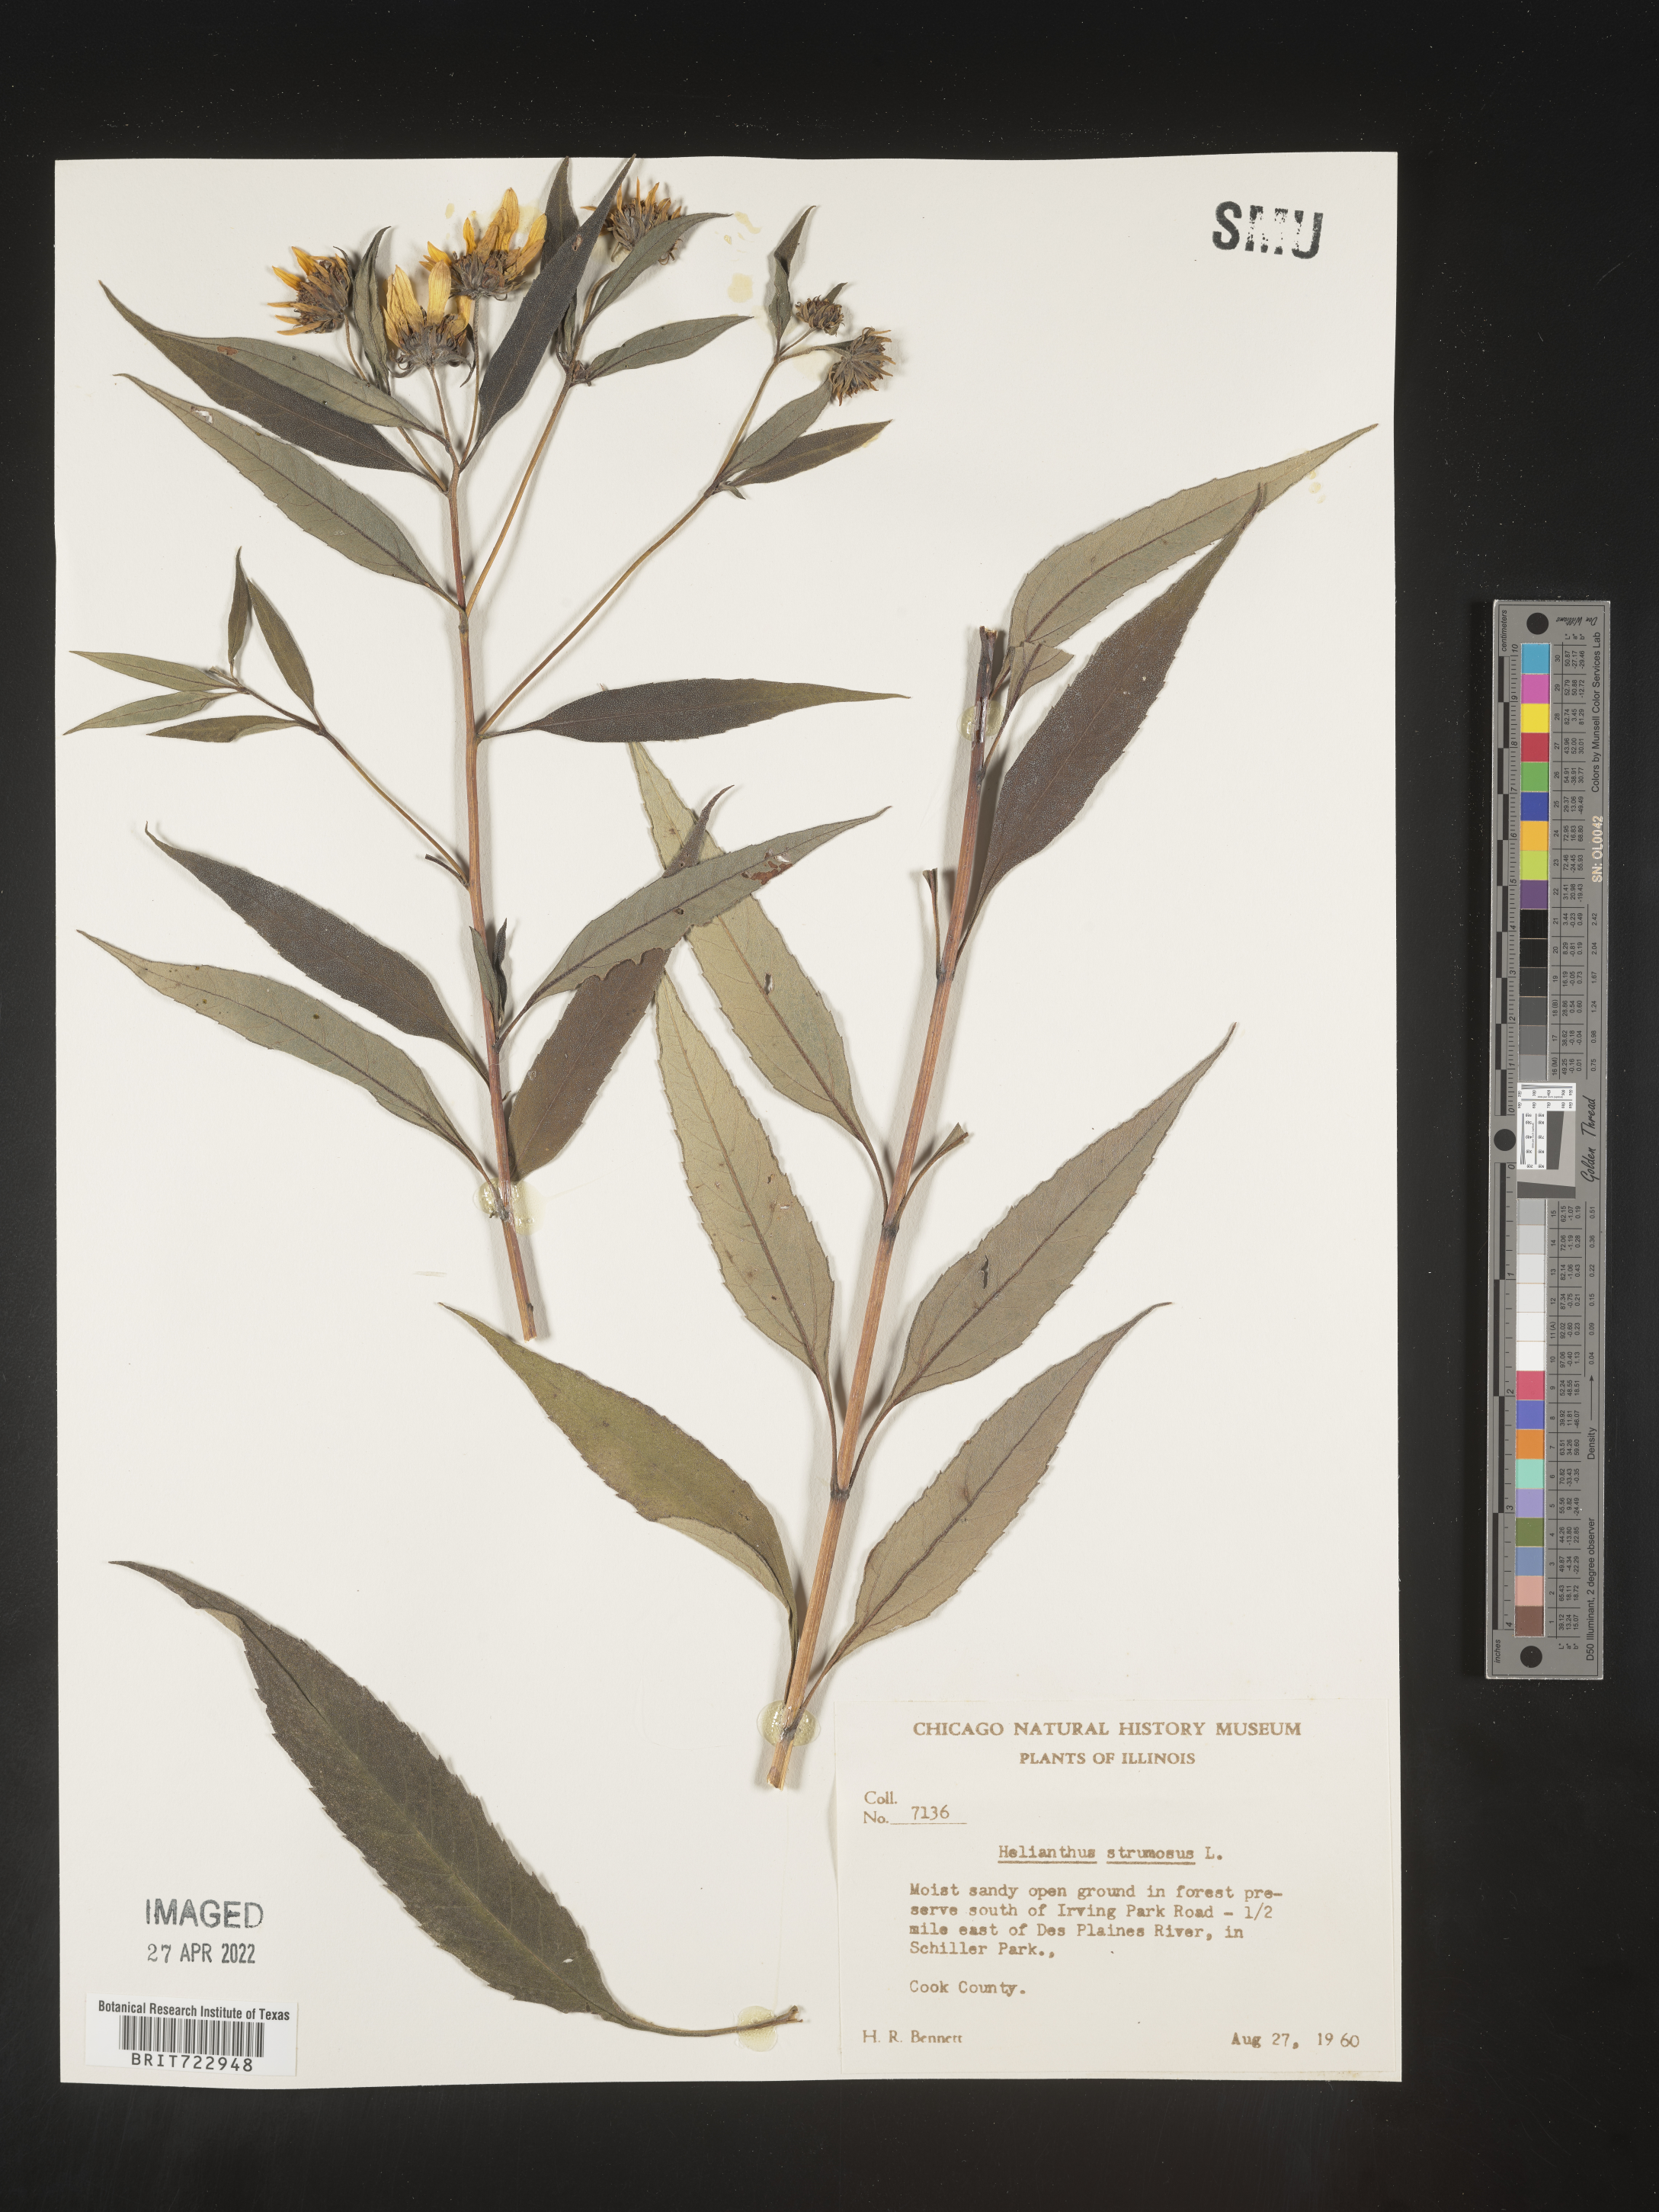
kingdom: Plantae
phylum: Tracheophyta
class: Magnoliopsida
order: Asterales
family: Asteraceae
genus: Helianthus
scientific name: Helianthus strumosus
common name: Pale-leaved sunflower
